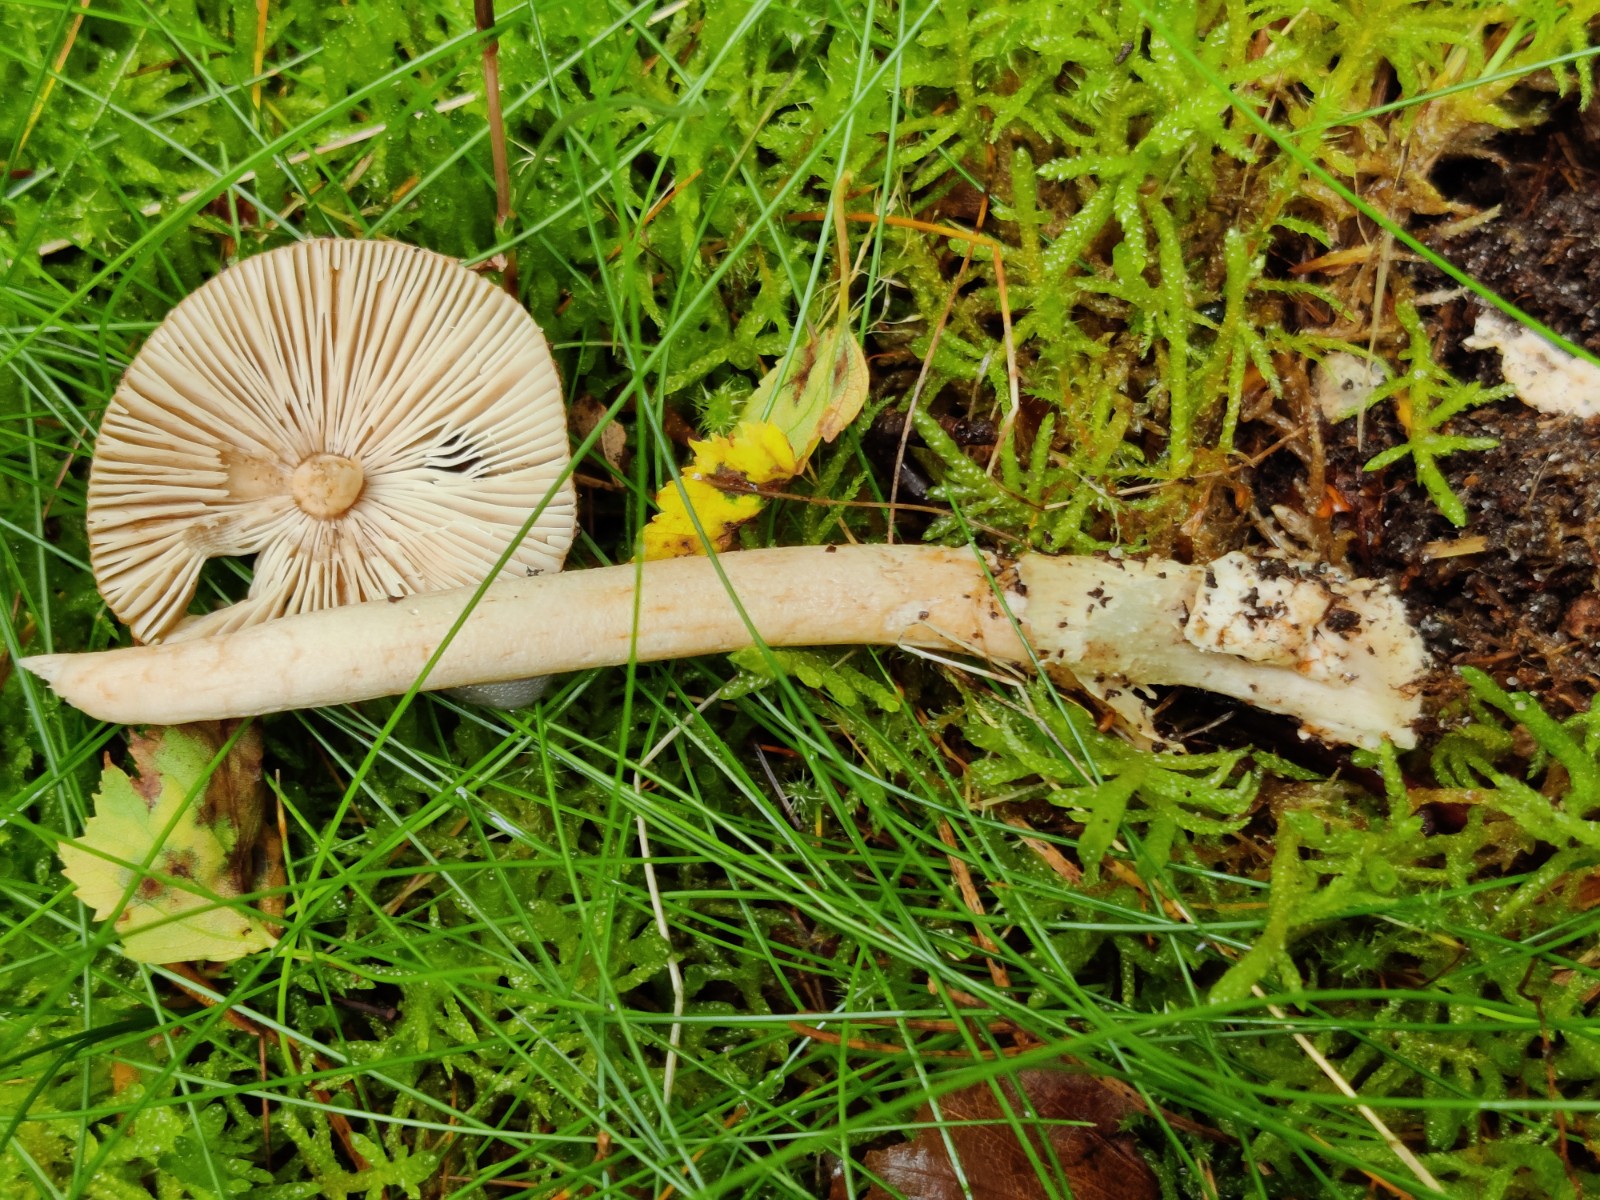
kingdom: Fungi
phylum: Basidiomycota
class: Agaricomycetes
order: Agaricales
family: Amanitaceae
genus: Amanita
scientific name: Amanita fulva
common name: brun kam-fluesvamp
